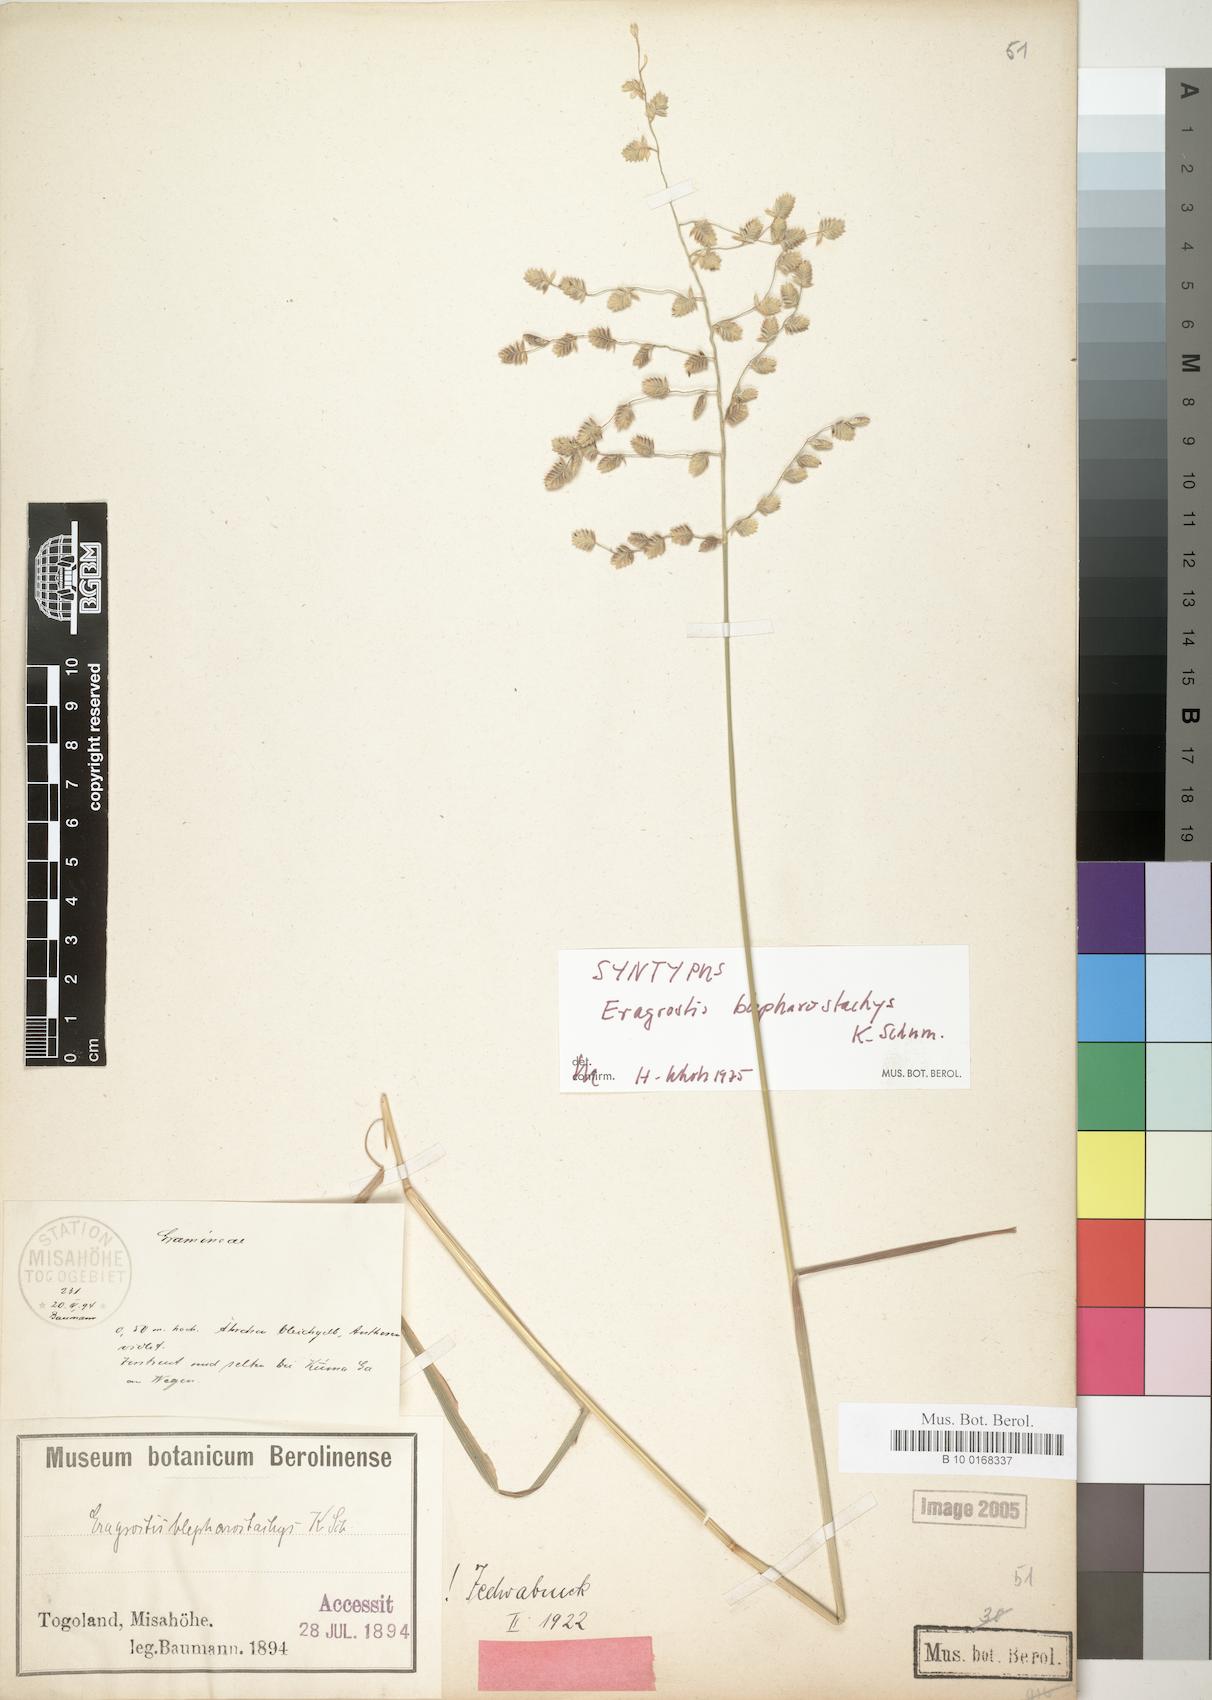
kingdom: Plantae
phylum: Tracheophyta
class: Liliopsida
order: Poales
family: Poaceae
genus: Eragrostis
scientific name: Eragrostis blepharostachya
